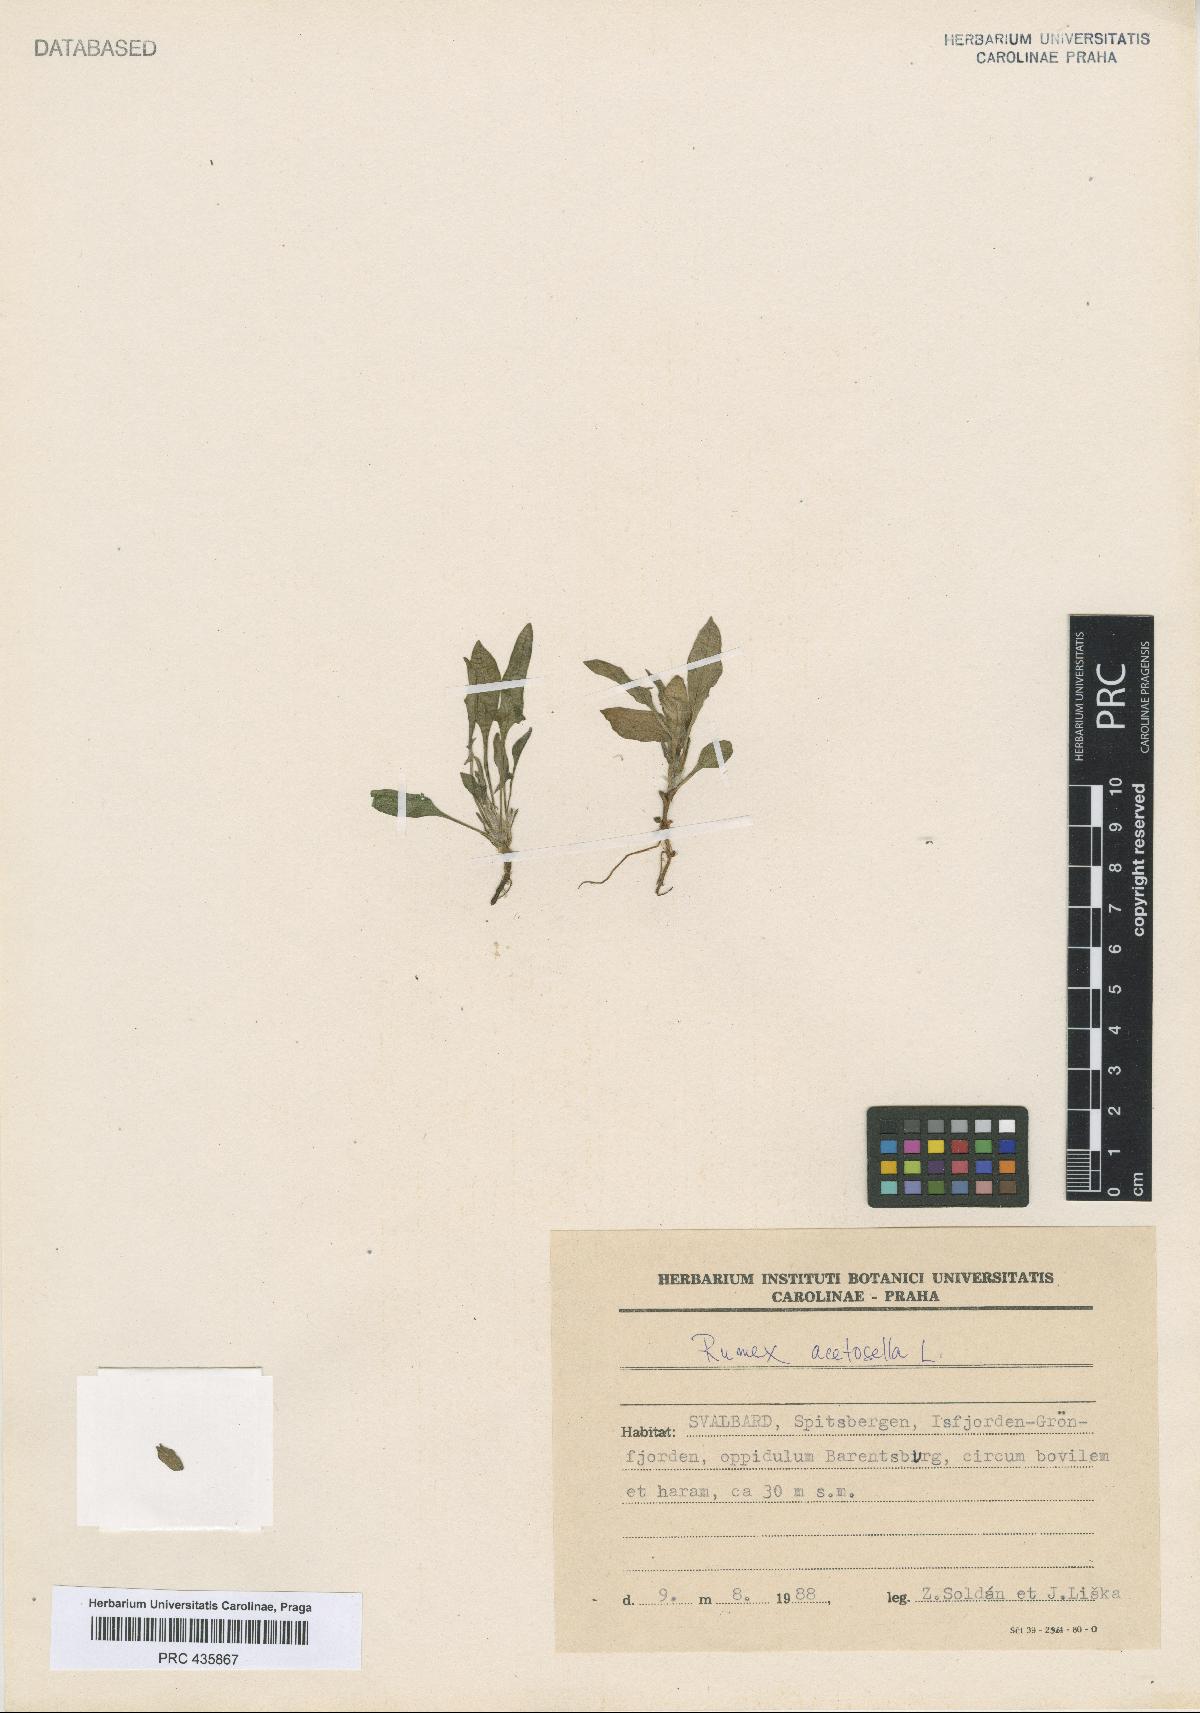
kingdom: Plantae
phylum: Tracheophyta
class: Magnoliopsida
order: Caryophyllales
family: Polygonaceae
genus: Rumex
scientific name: Rumex acetosella
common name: Common sheep sorrel
